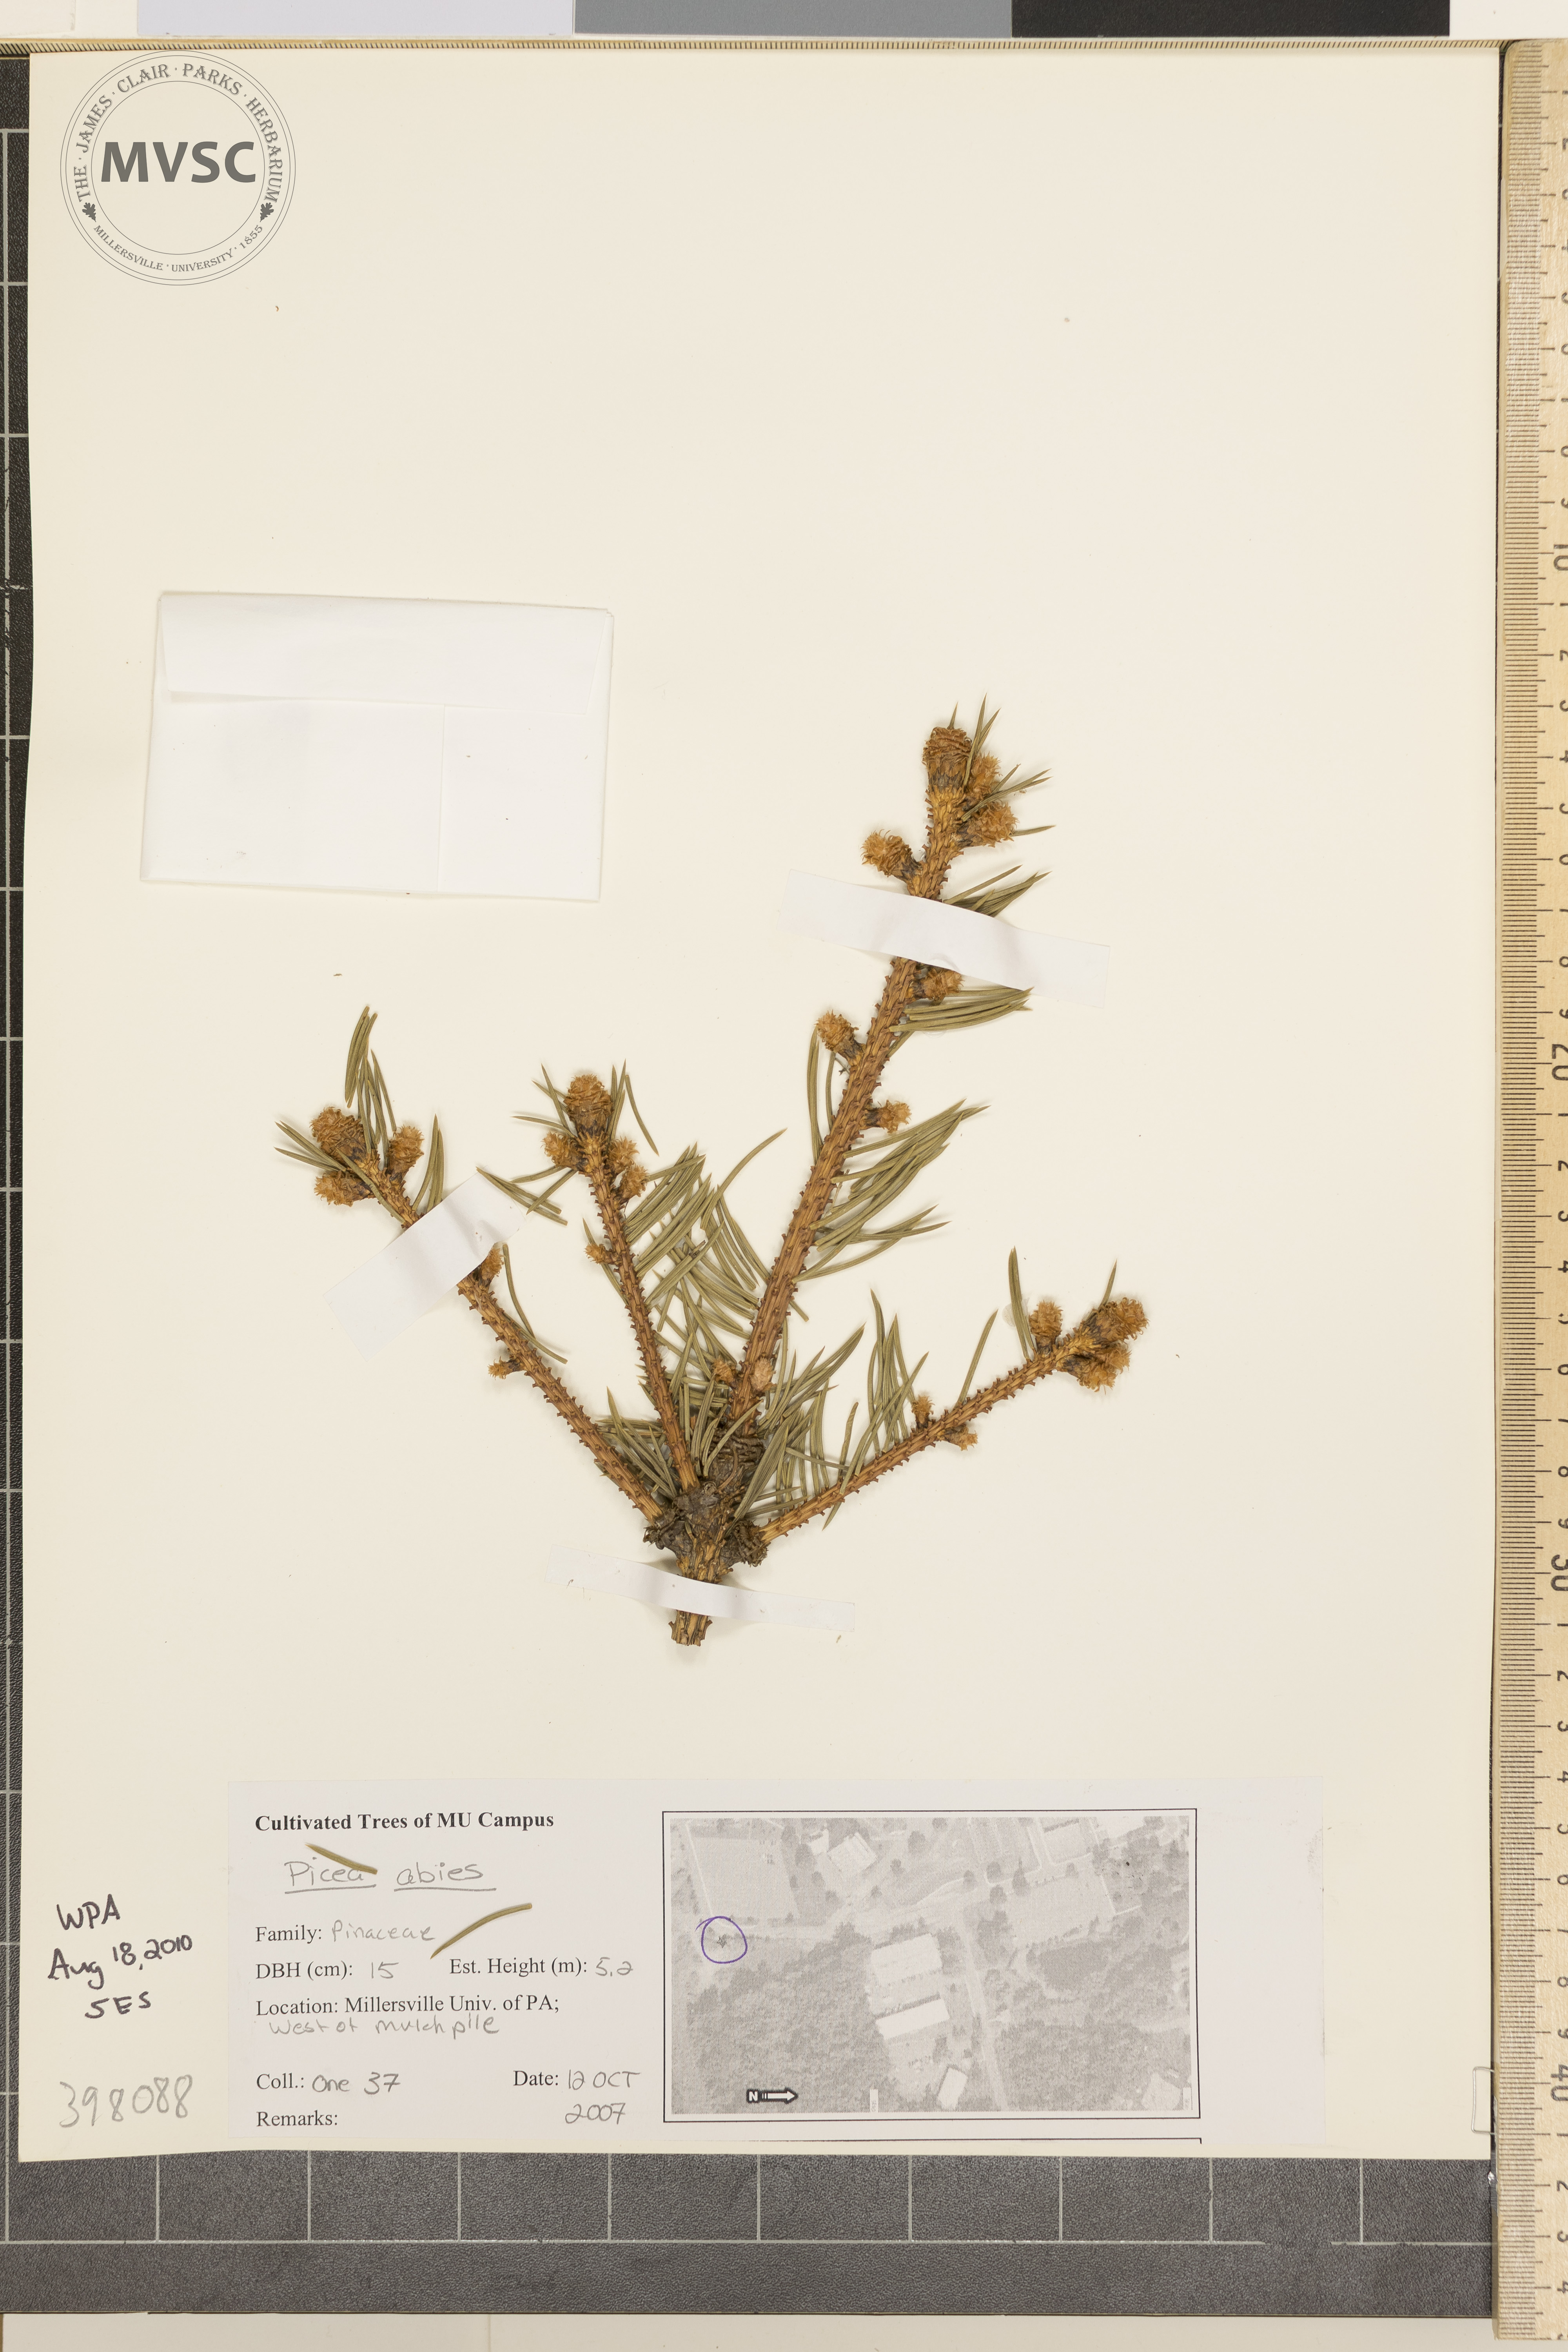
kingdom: Plantae
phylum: Tracheophyta
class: Pinopsida
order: Pinales
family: Pinaceae
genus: Picea
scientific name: Picea abies
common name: Norway spruce
